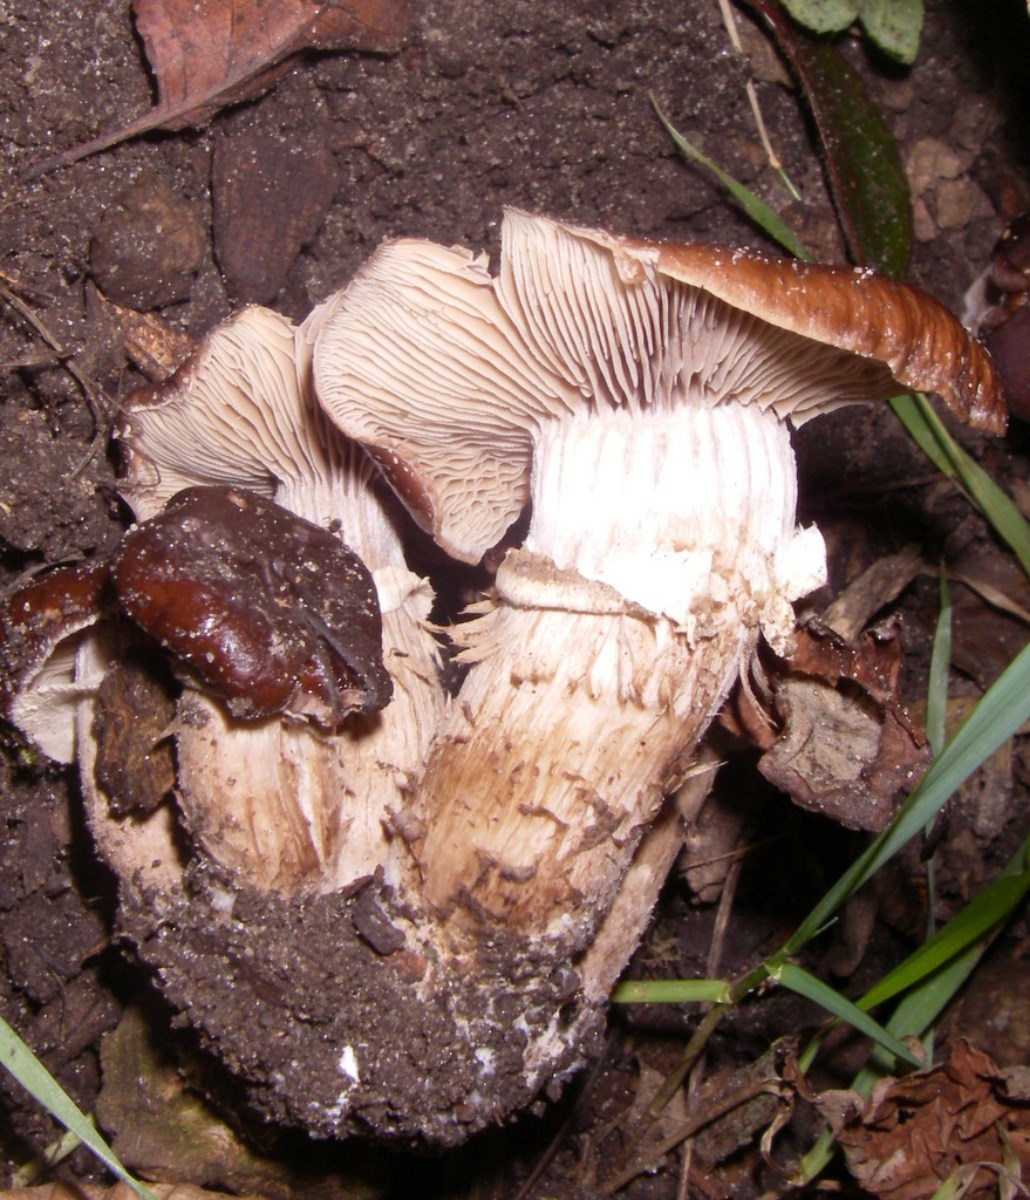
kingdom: Fungi
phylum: Basidiomycota
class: Agaricomycetes
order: Agaricales
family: Strophariaceae
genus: Stropharia
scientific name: Stropharia rugosoannulata
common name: rødbrun bredblad
